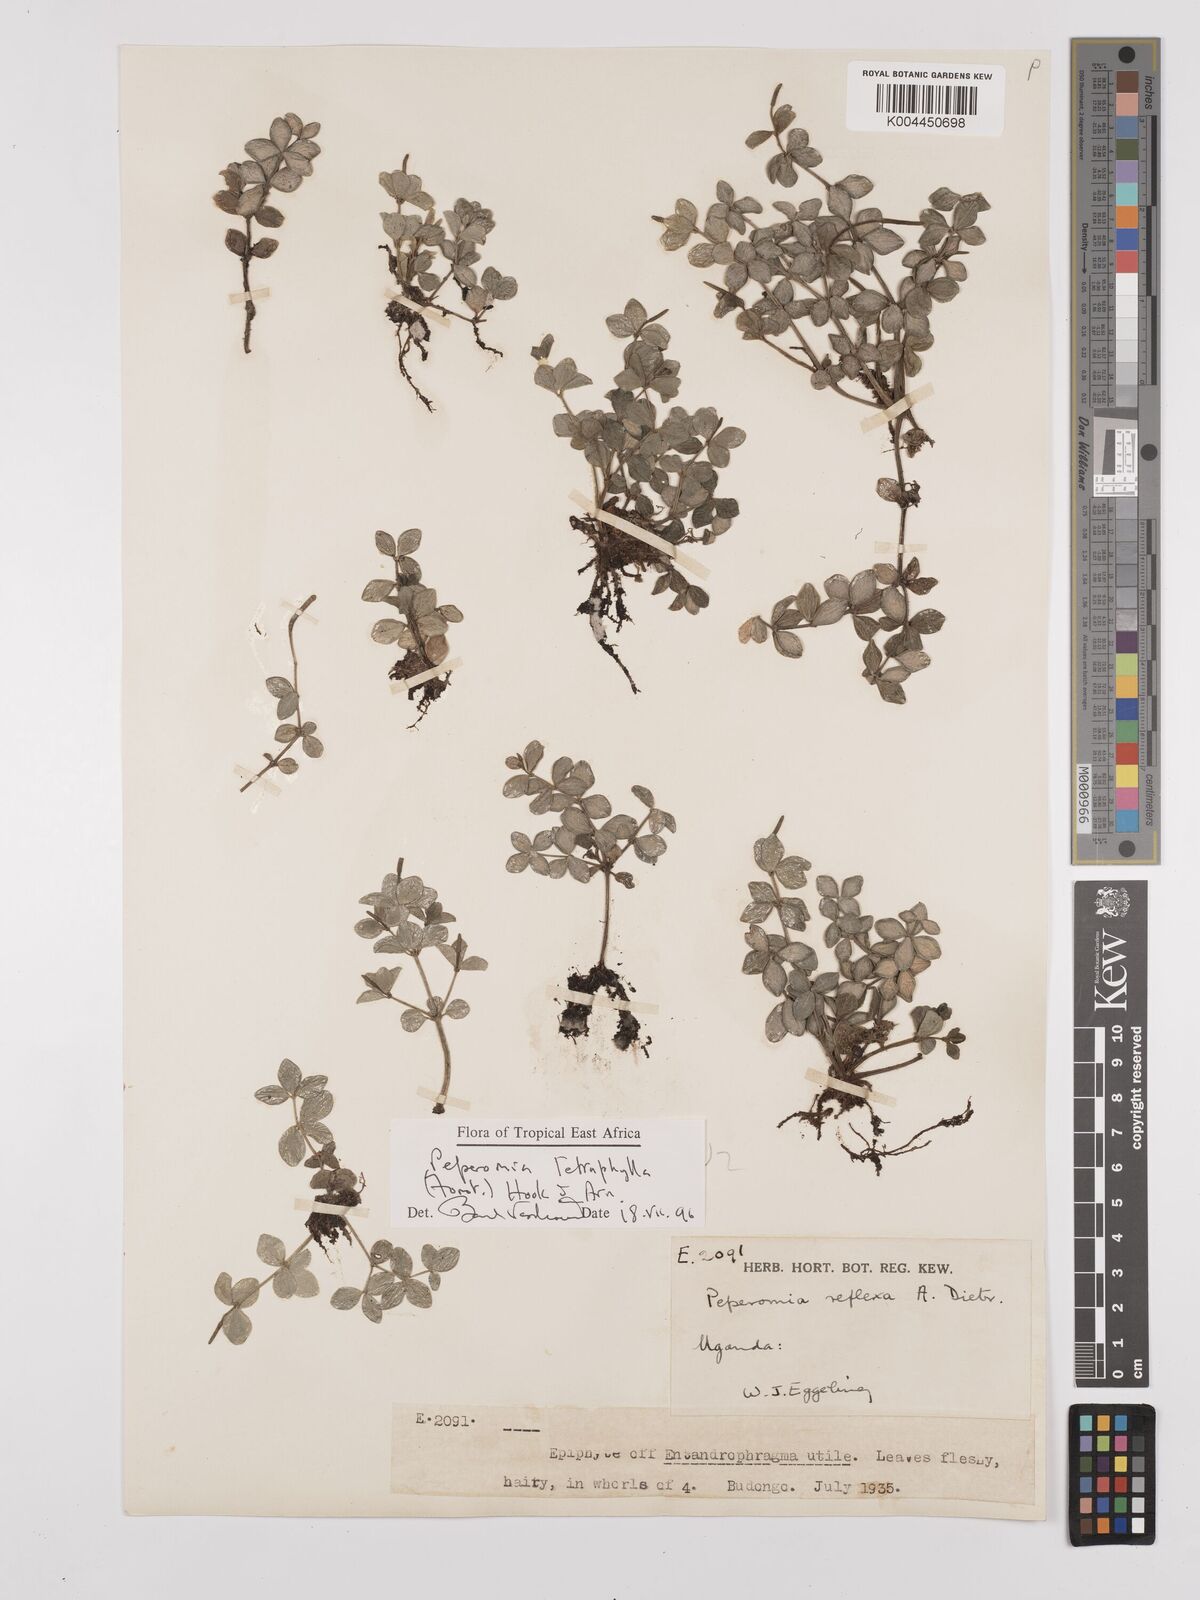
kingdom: Plantae
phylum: Tracheophyta
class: Magnoliopsida
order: Piperales
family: Piperaceae
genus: Peperomia
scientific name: Peperomia tetraphylla
